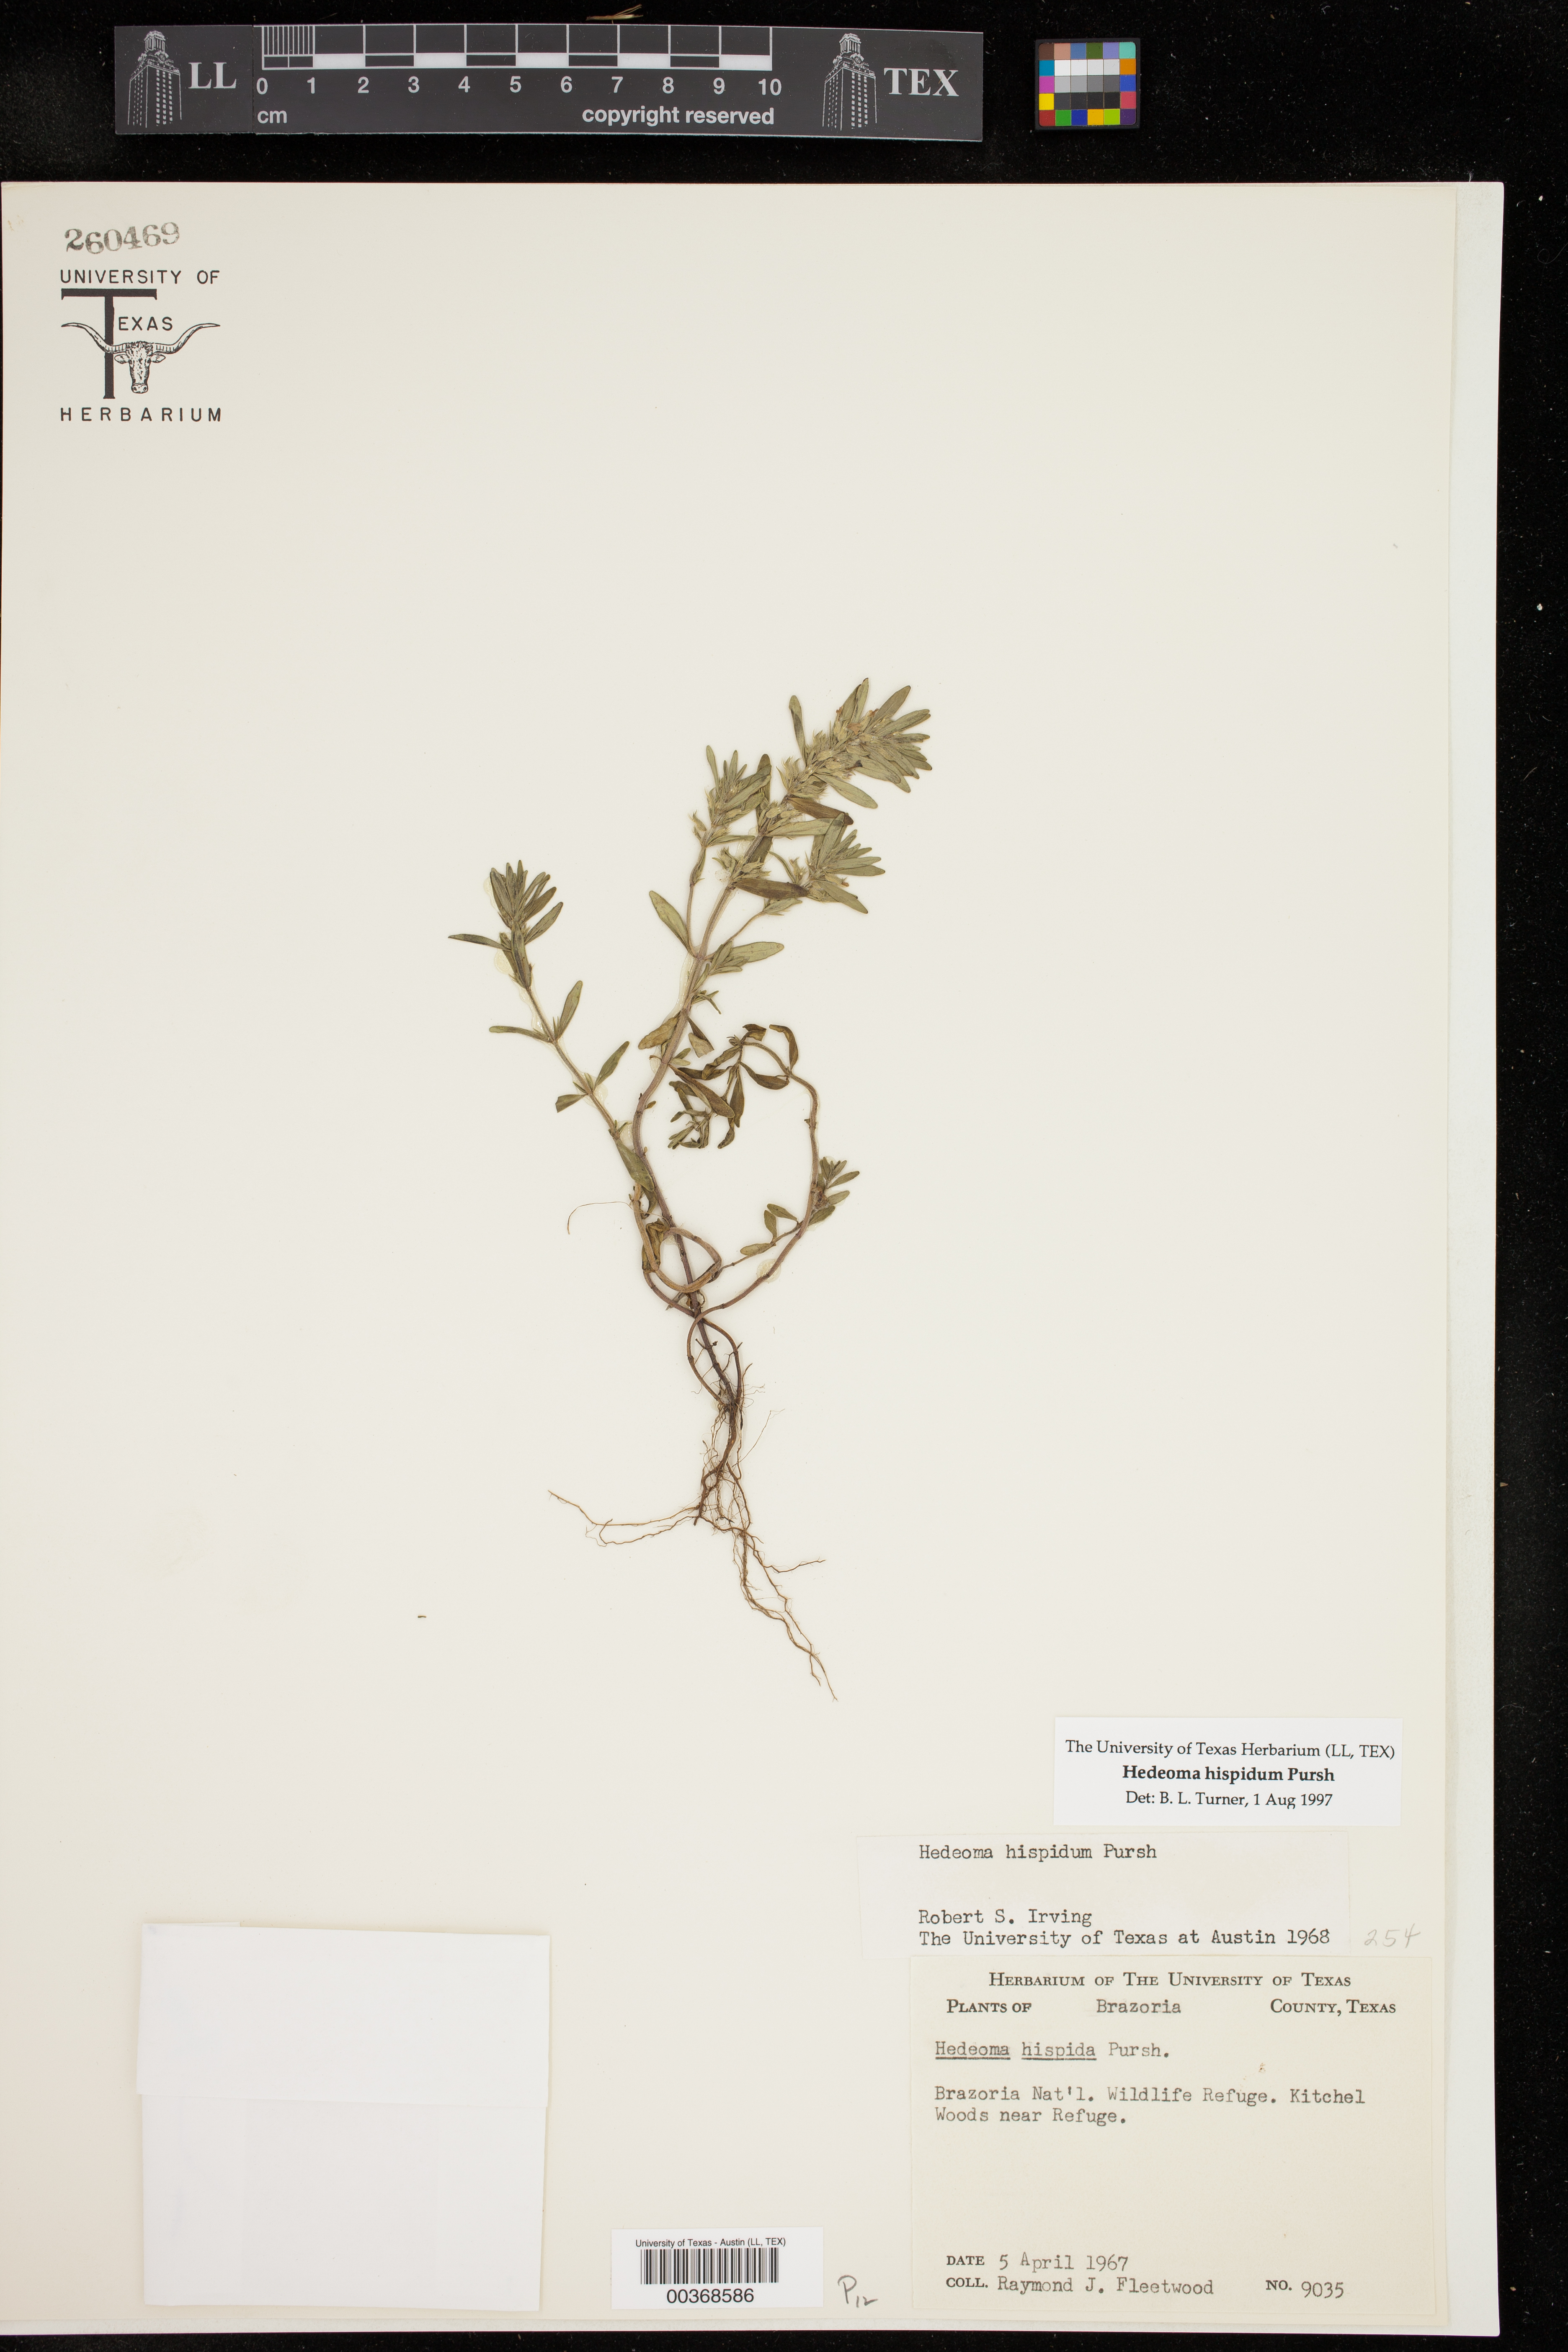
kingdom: Plantae
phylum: Tracheophyta
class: Magnoliopsida
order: Lamiales
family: Lamiaceae
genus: Hedeoma
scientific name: Hedeoma hispida
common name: Mock pennyroyal
